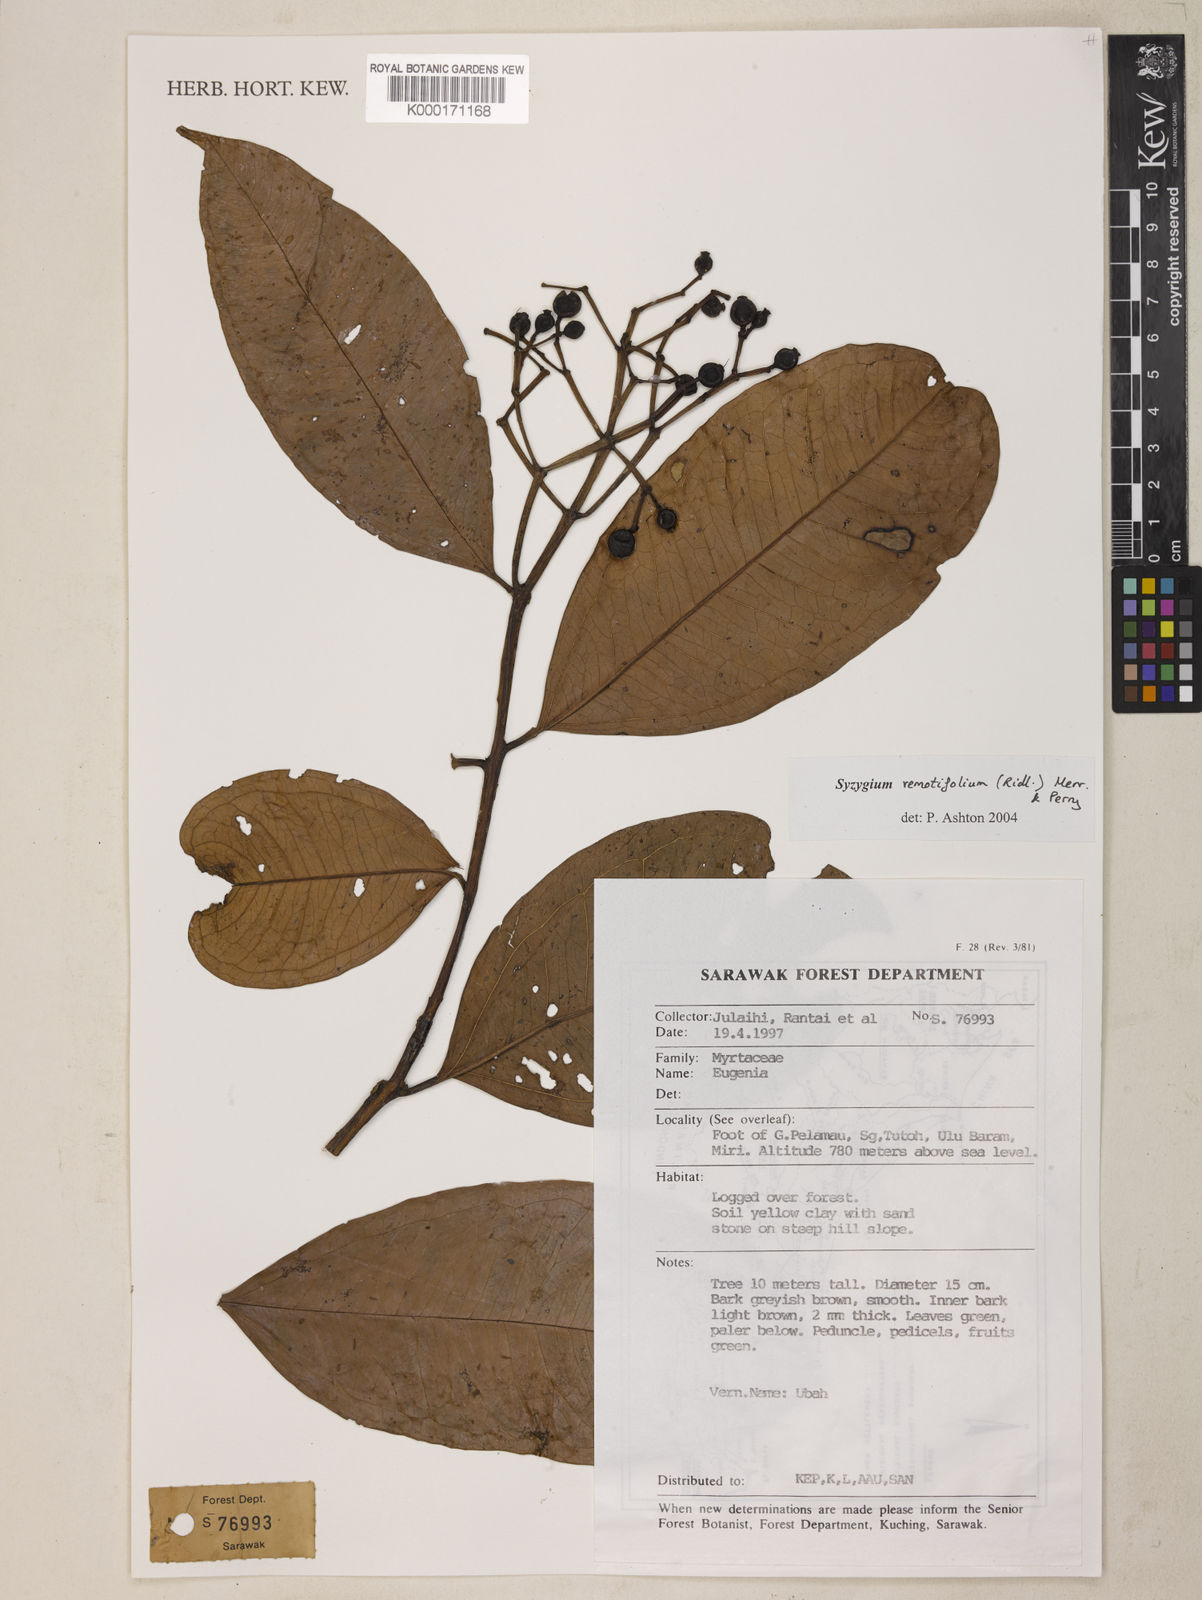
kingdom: Plantae
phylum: Tracheophyta
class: Magnoliopsida
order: Myrtales
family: Myrtaceae
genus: Syzygium
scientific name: Syzygium remotifolium
